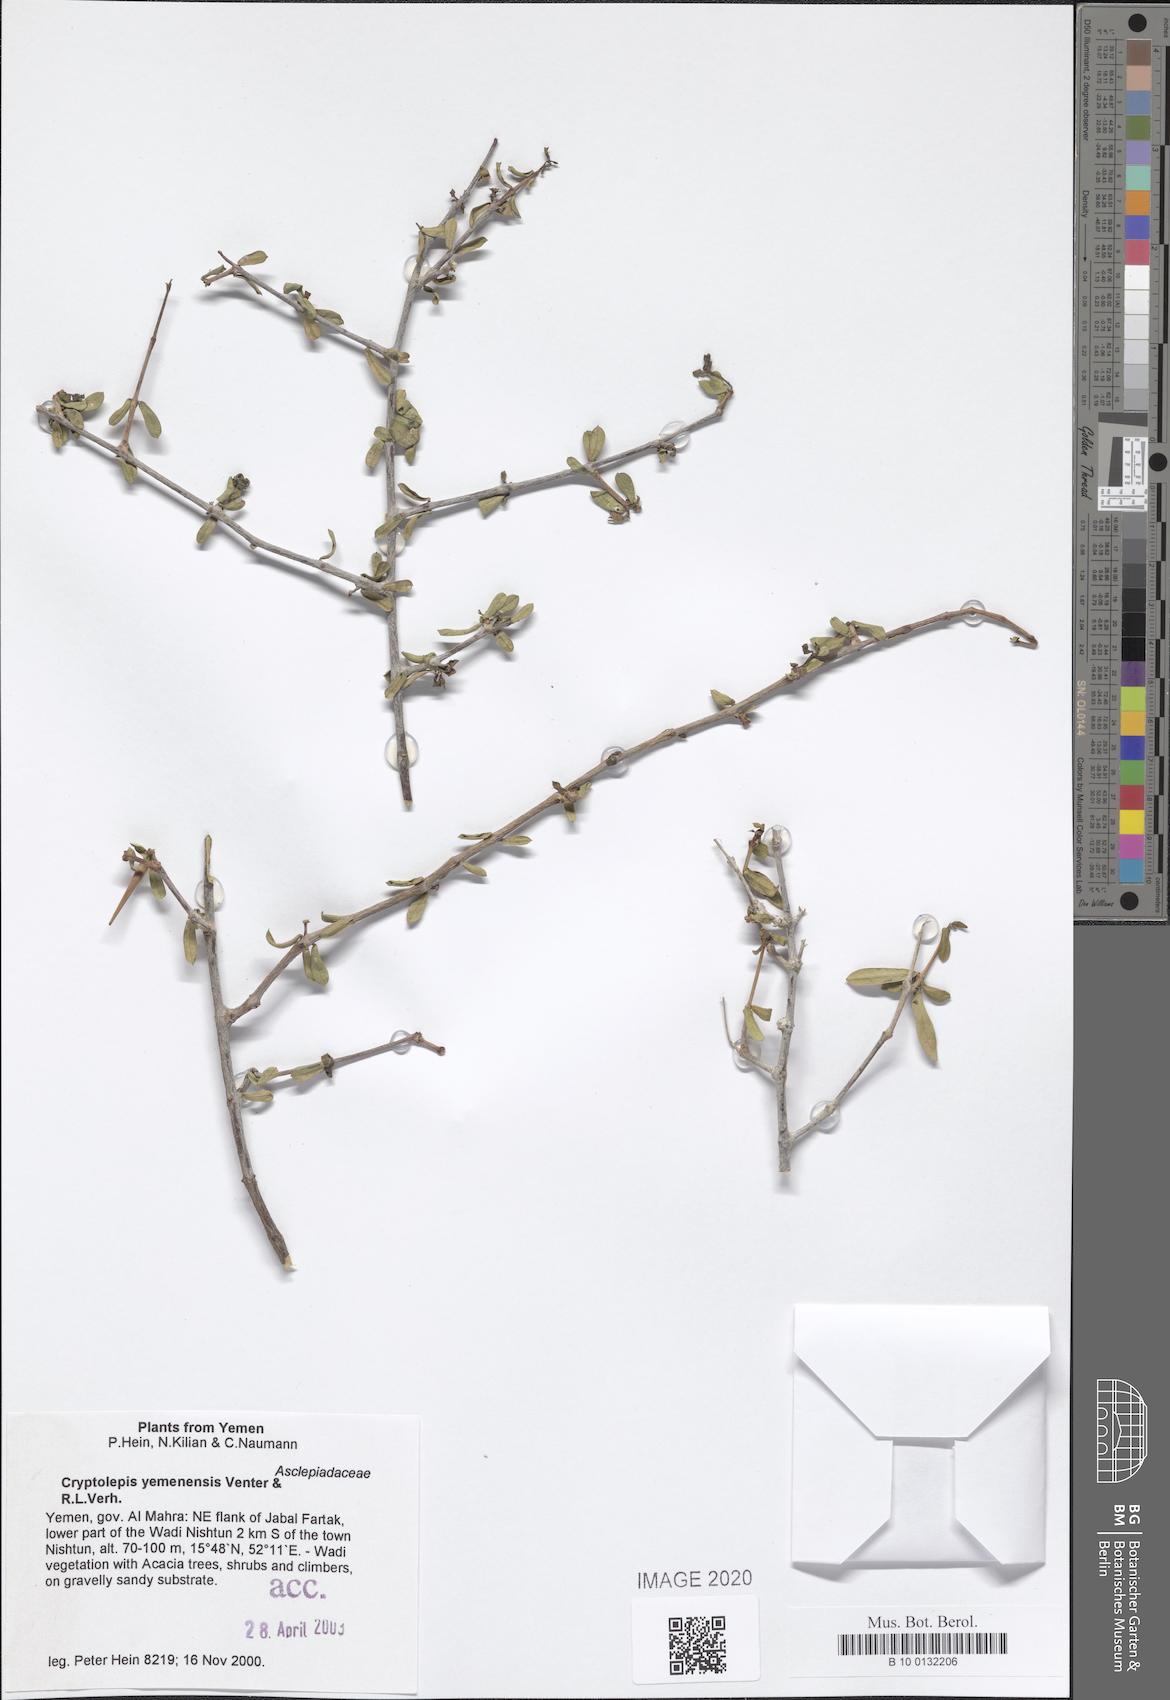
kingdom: Plantae
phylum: Tracheophyta
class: Magnoliopsida
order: Gentianales
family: Apocynaceae
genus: Cryptolepis
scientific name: Cryptolepis yemenensis
